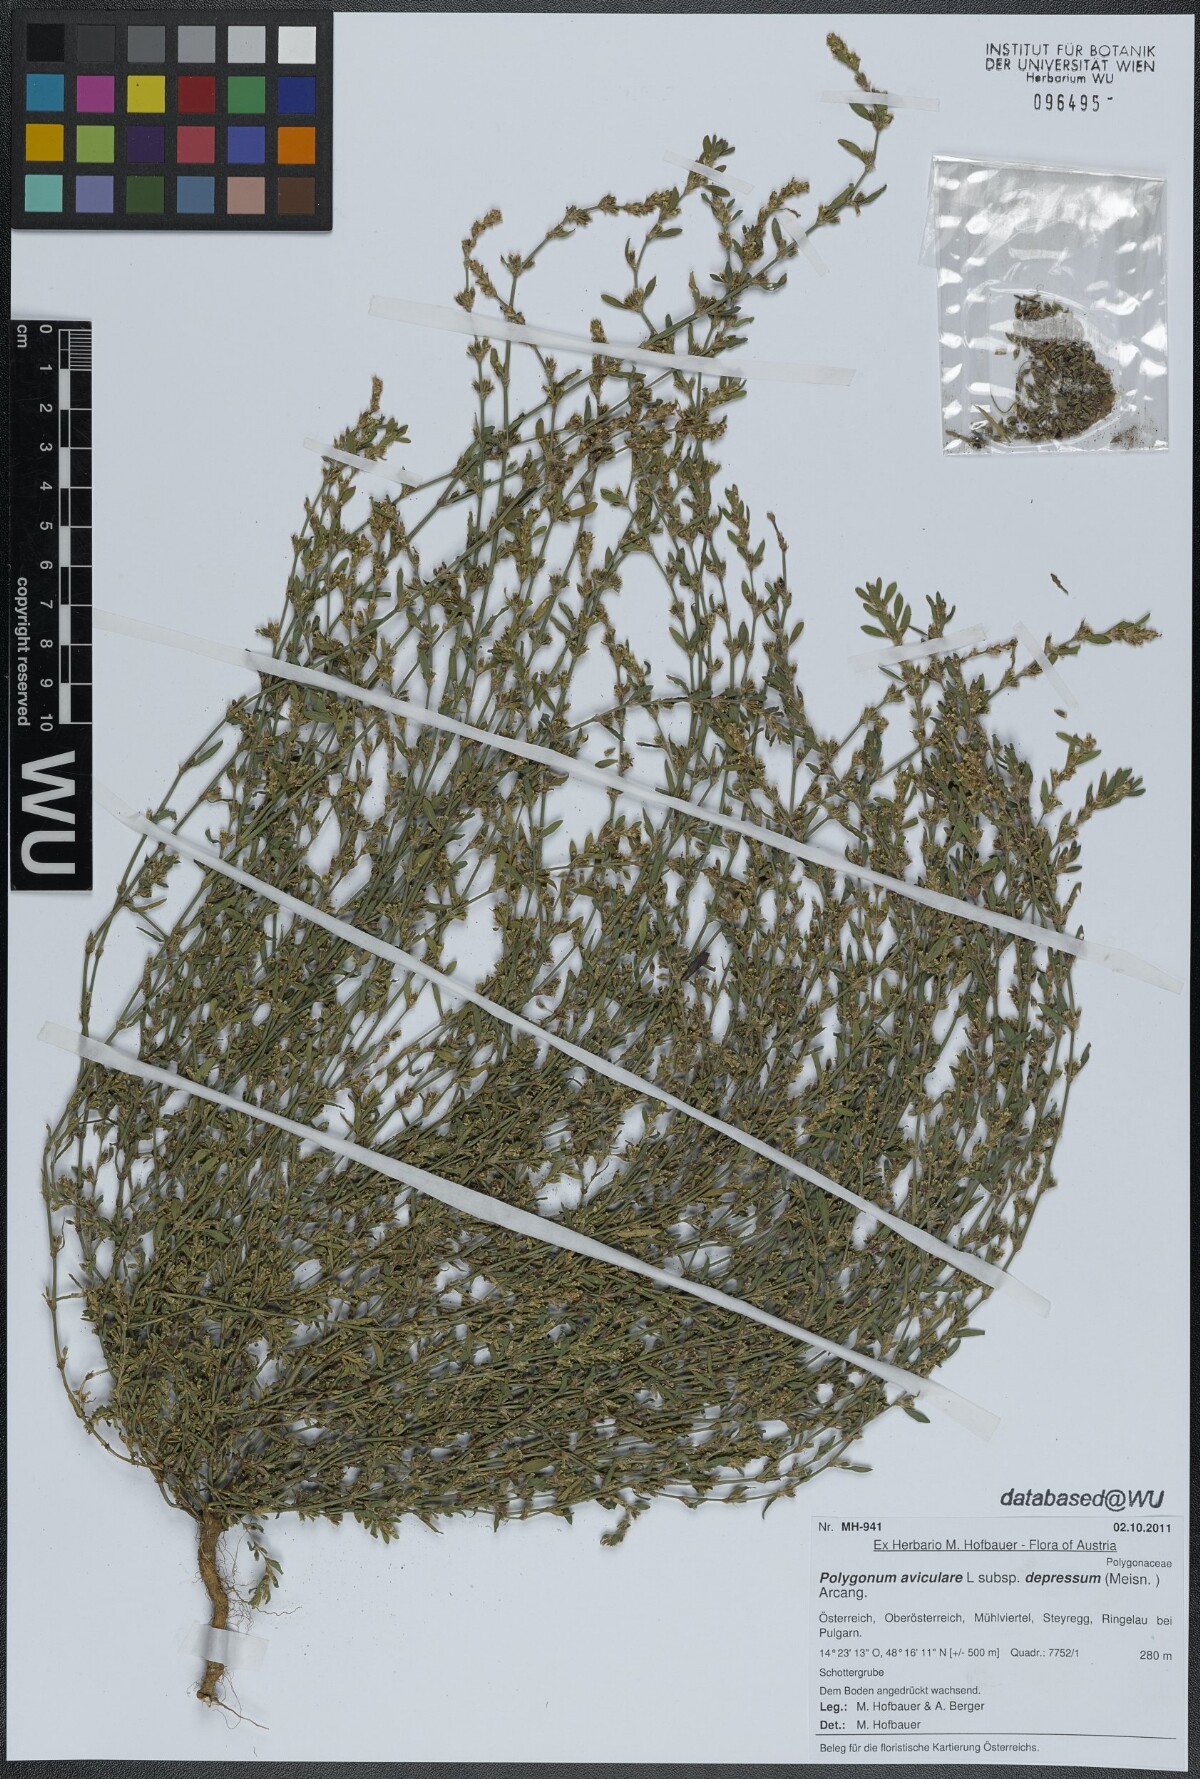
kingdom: Plantae
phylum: Tracheophyta
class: Magnoliopsida
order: Caryophyllales
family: Polygonaceae
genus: Polygonum
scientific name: Polygonum arenastrum
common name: Equal-leaved knotgrass
